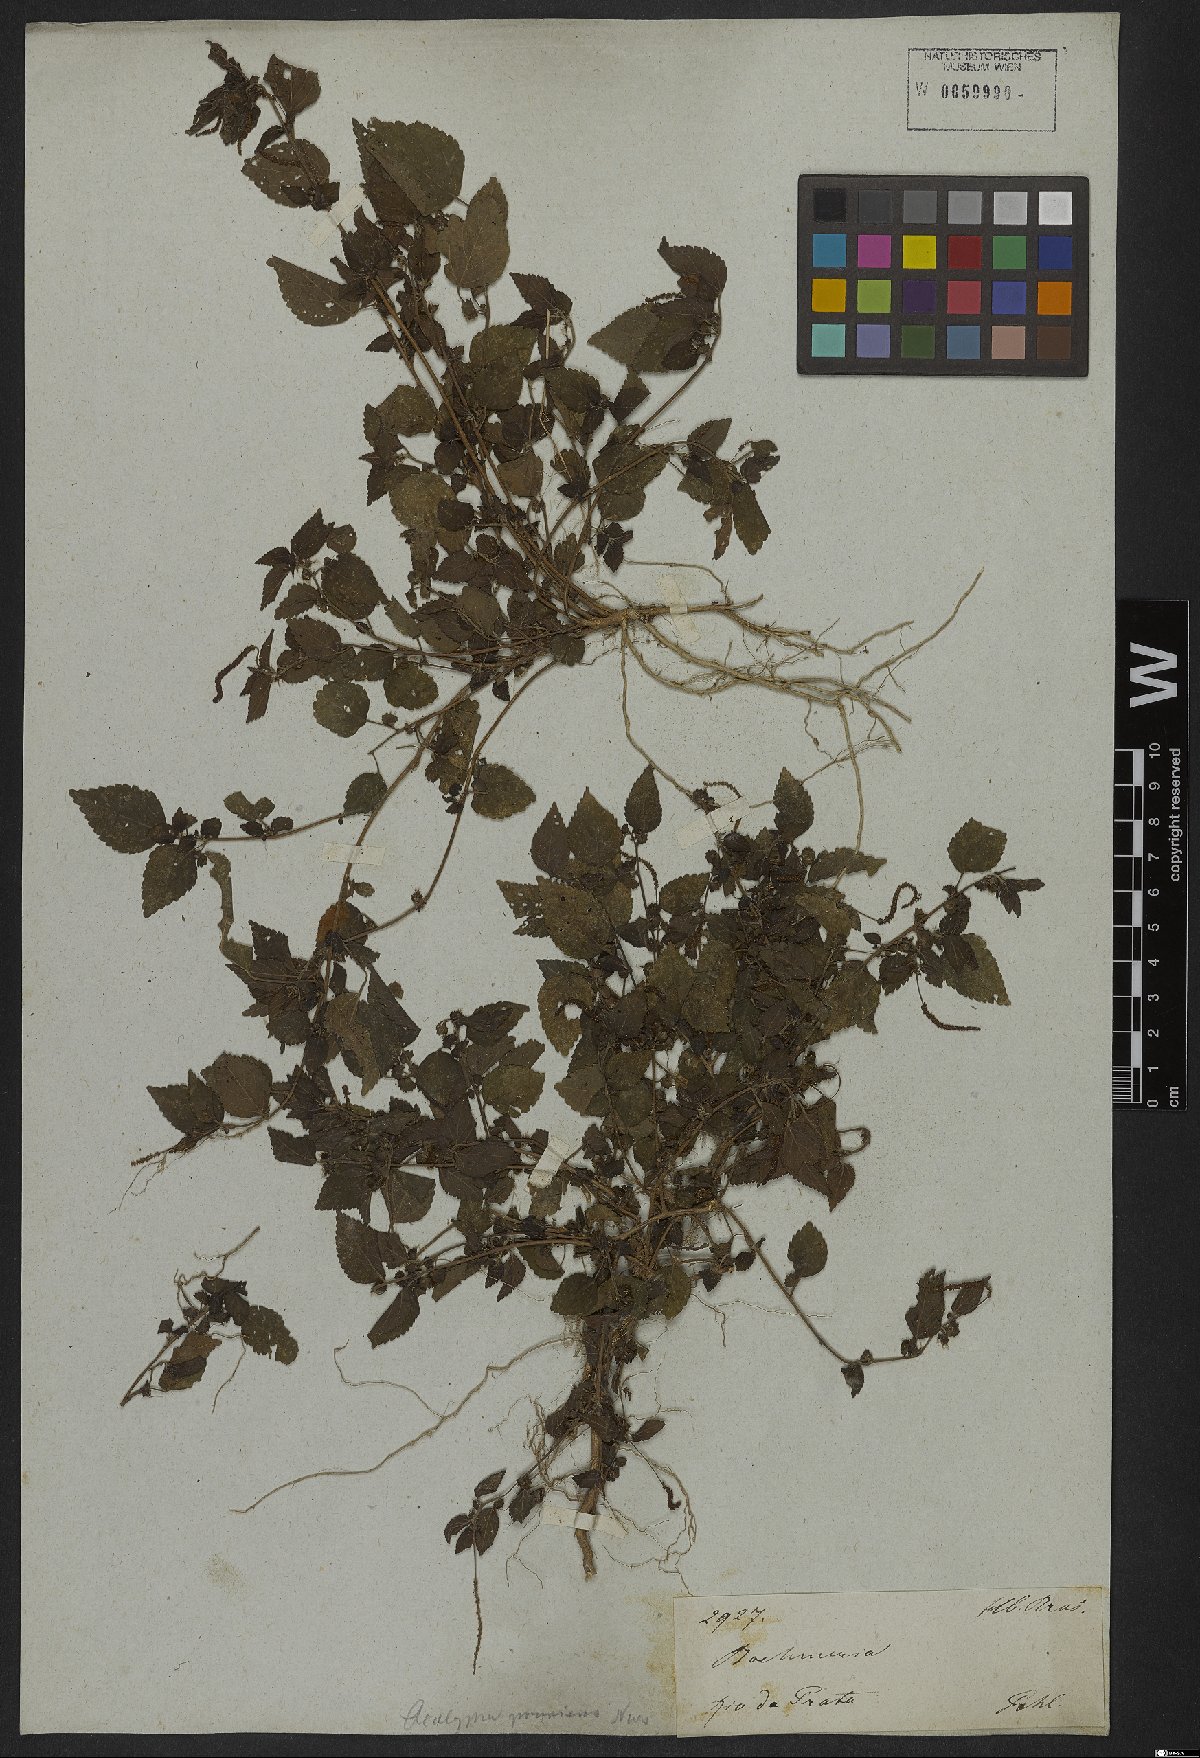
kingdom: Plantae
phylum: Tracheophyta
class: Magnoliopsida
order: Malpighiales
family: Euphorbiaceae
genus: Acalypha
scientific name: Acalypha pruriens
